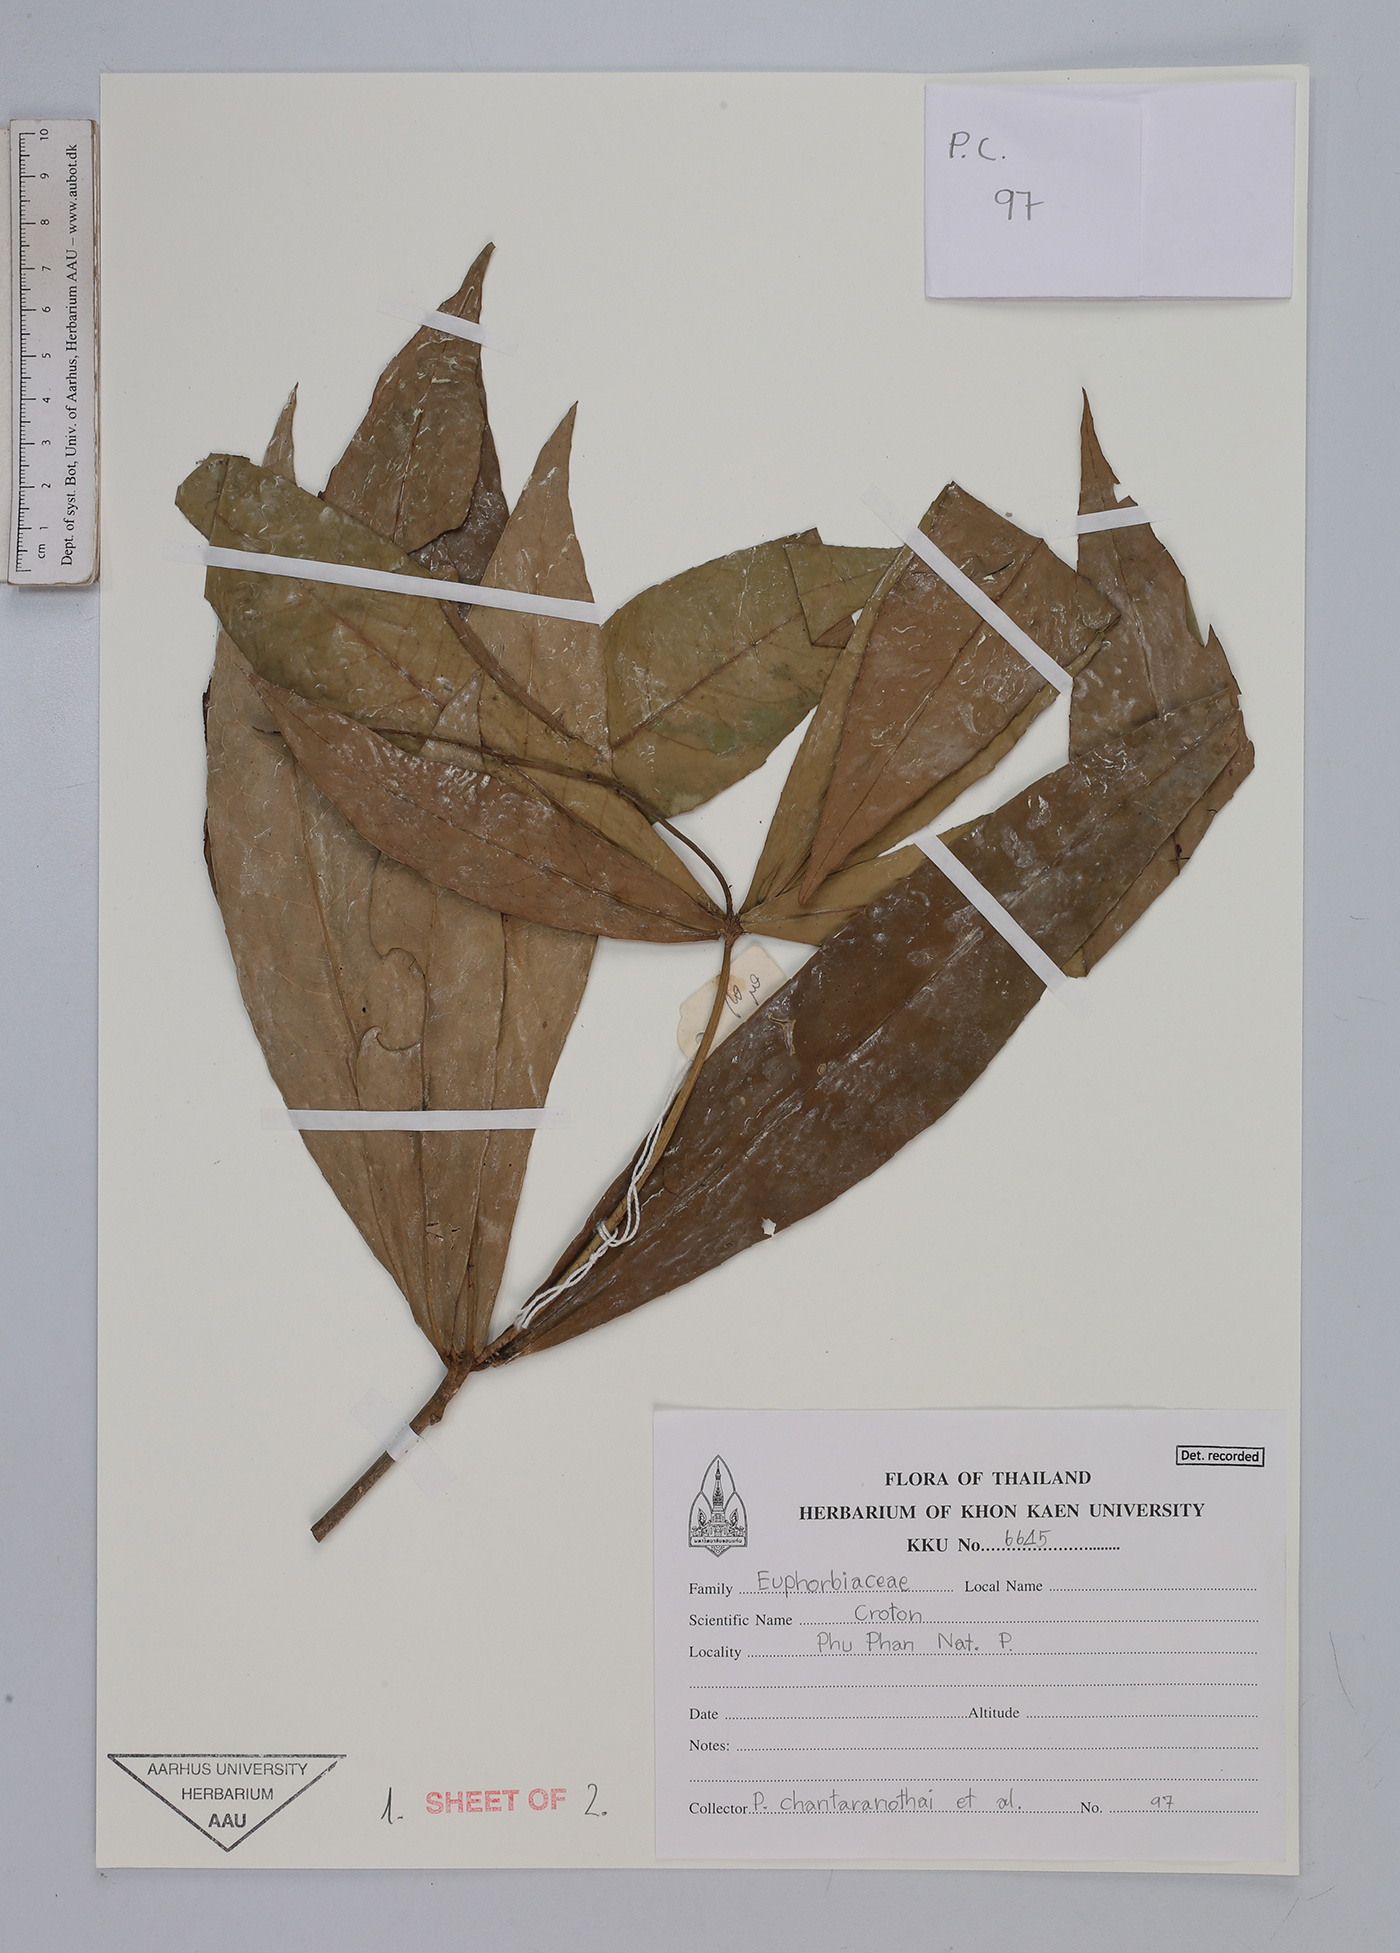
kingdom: Plantae
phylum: Tracheophyta
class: Magnoliopsida
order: Malpighiales
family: Euphorbiaceae
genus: Croton
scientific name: Croton
